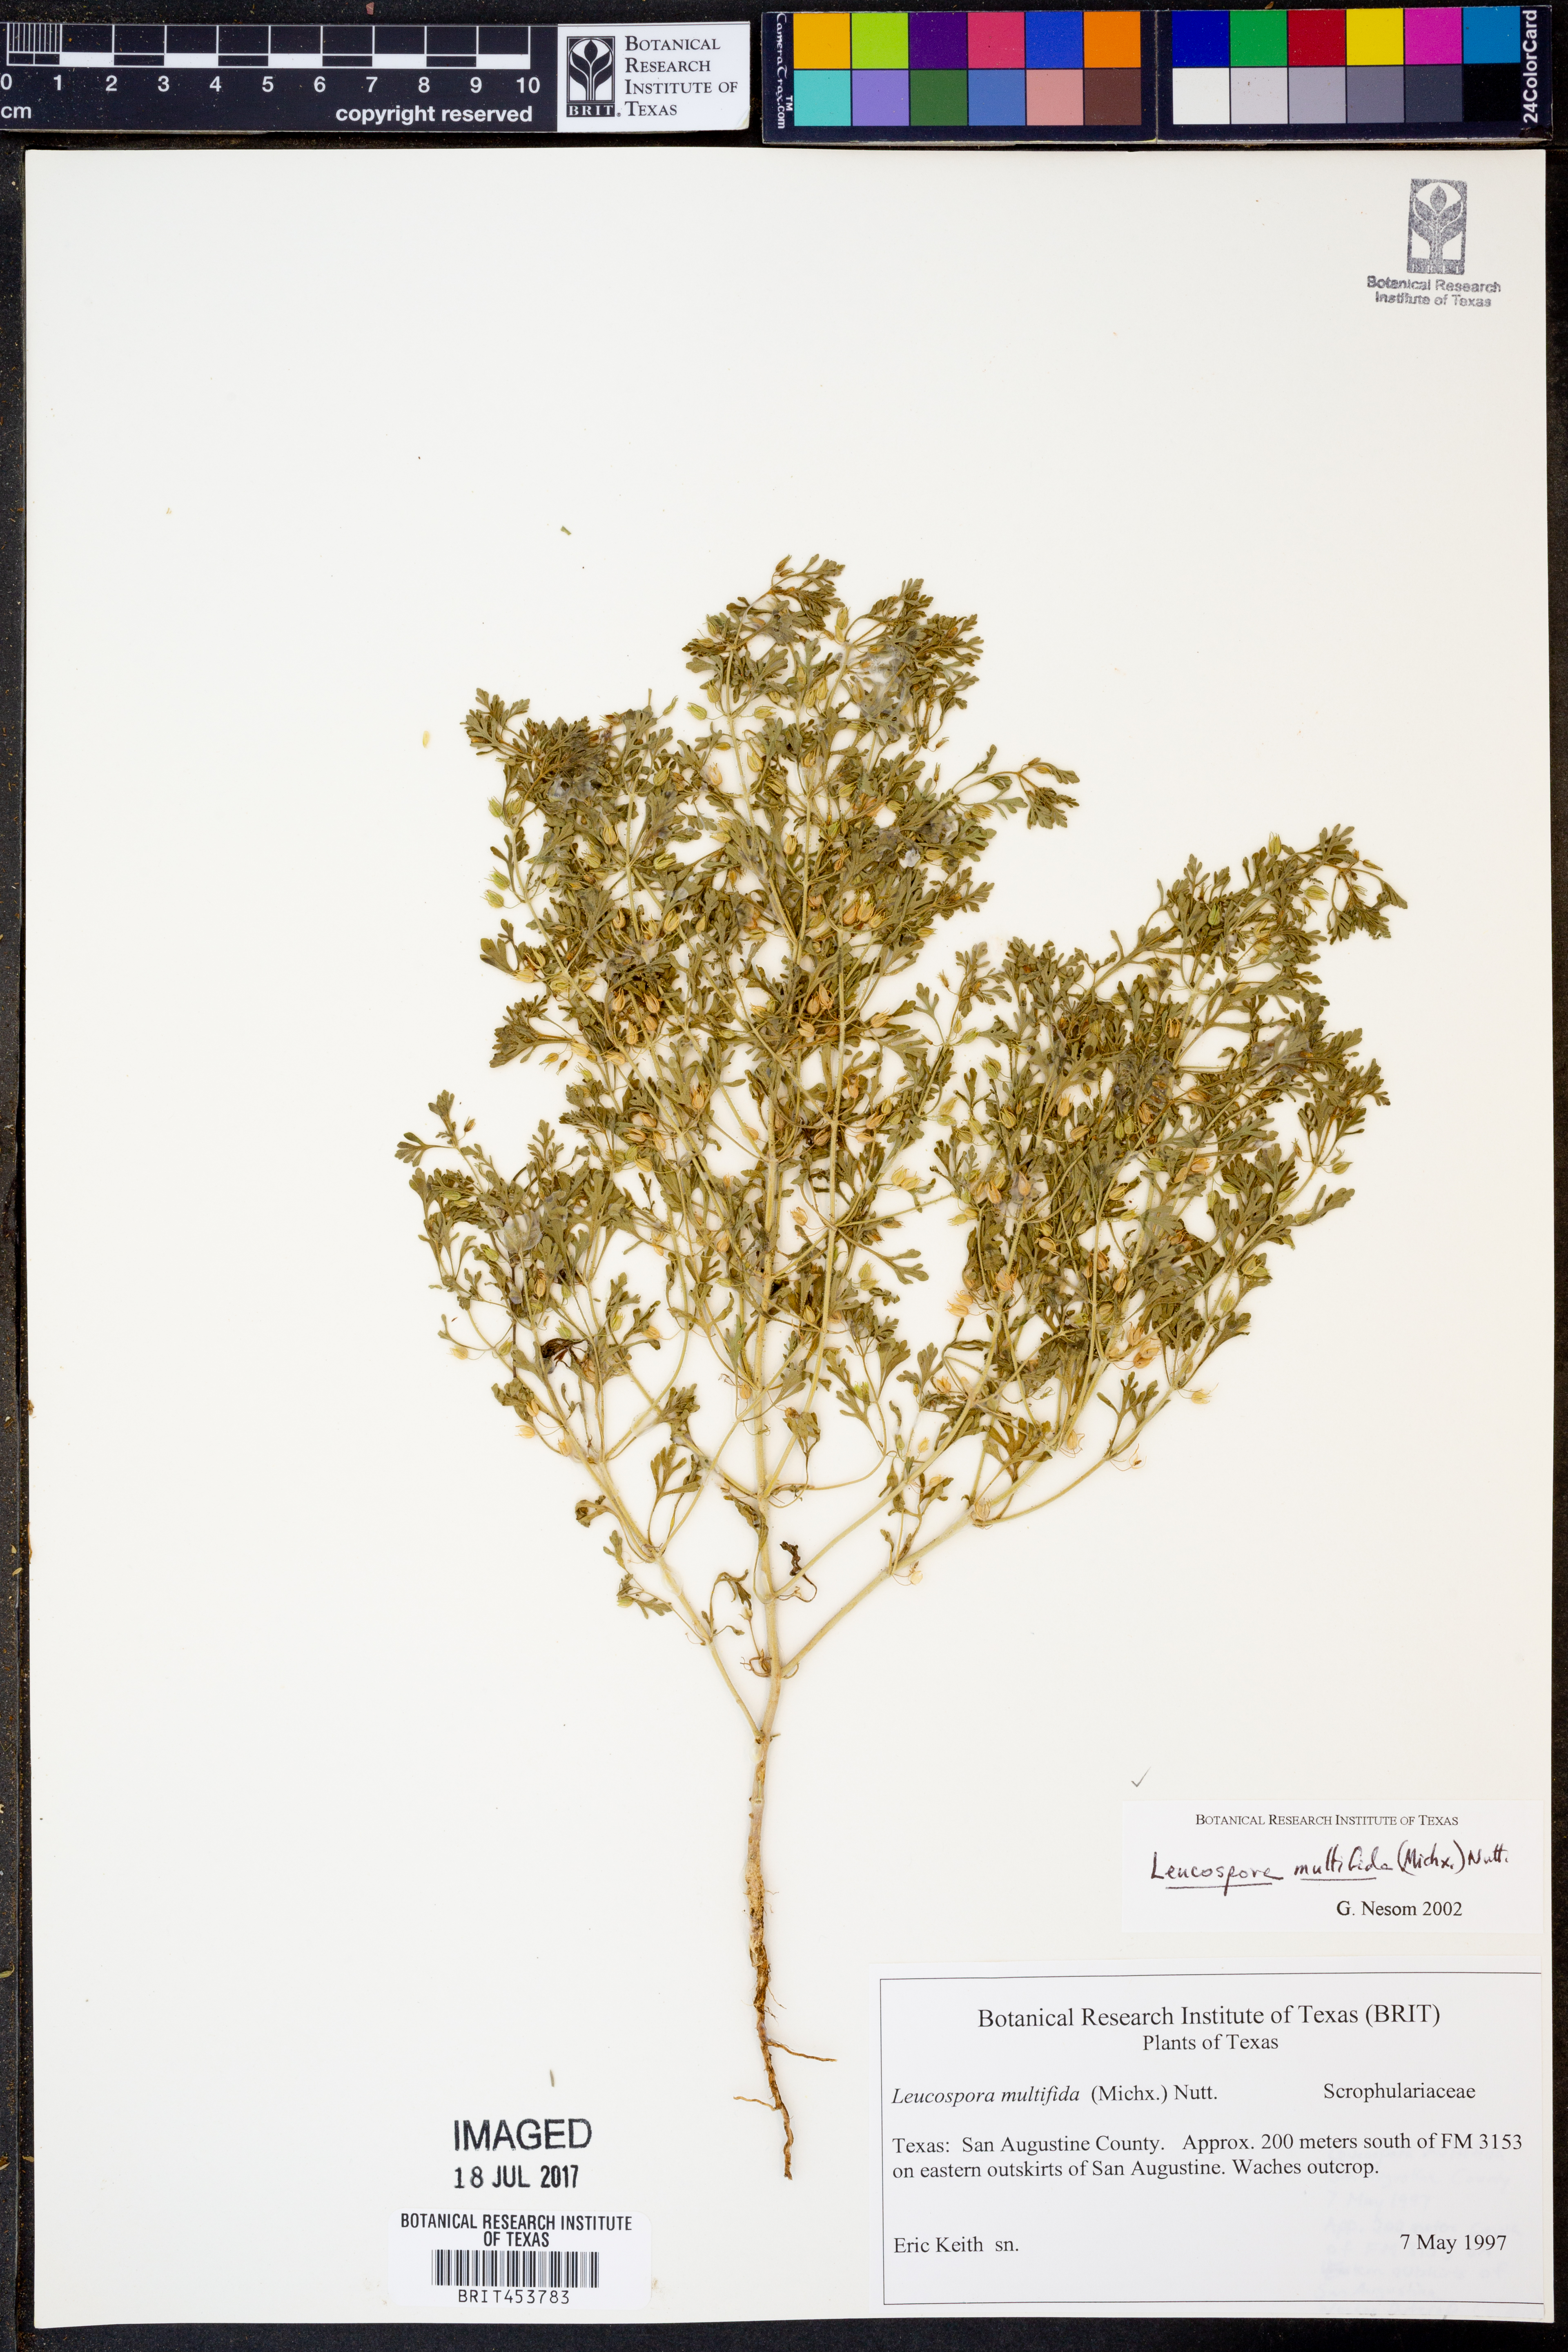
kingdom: Plantae
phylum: Tracheophyta
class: Magnoliopsida
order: Lamiales
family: Plantaginaceae
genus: Leucospora
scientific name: Leucospora multifida
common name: Narrow-leaf paleseed
